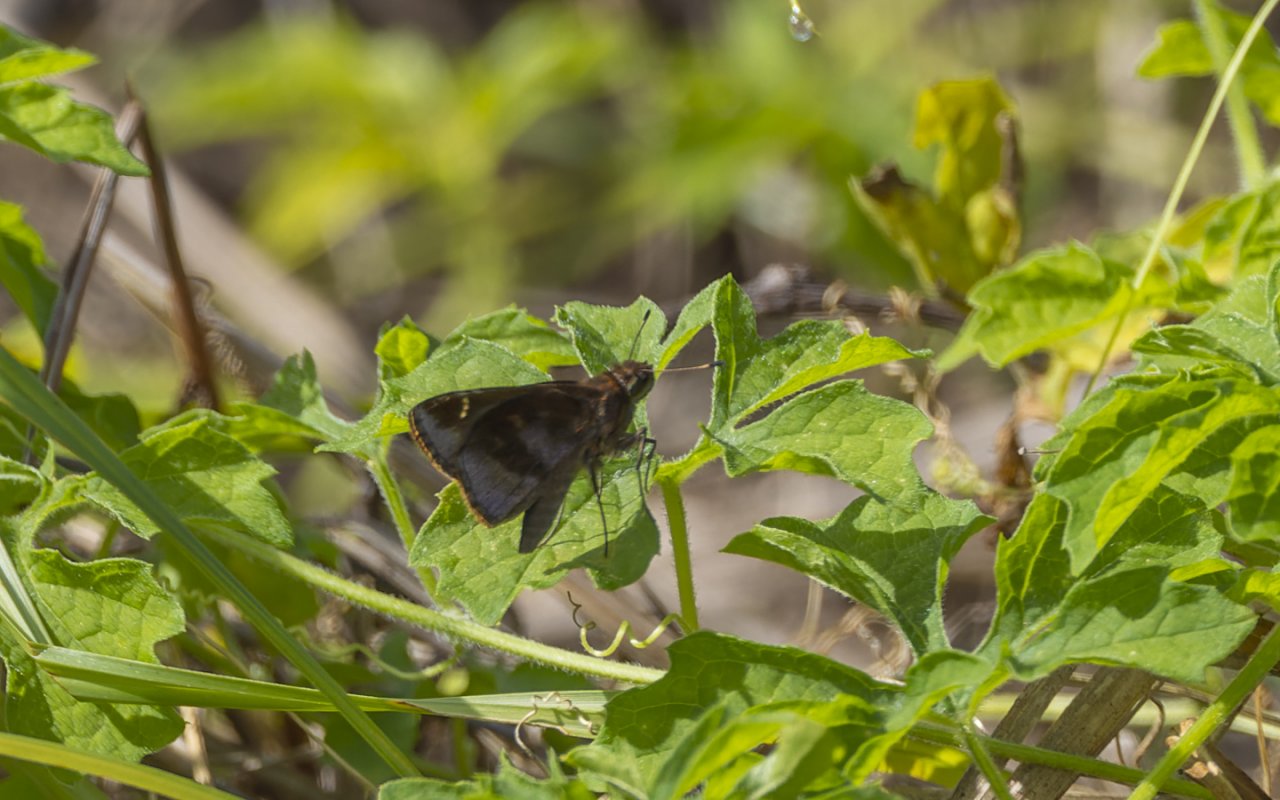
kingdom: Animalia
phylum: Arthropoda
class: Insecta
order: Lepidoptera
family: Hesperiidae
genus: Lerema
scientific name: Lerema accius
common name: Clouded Skipper
